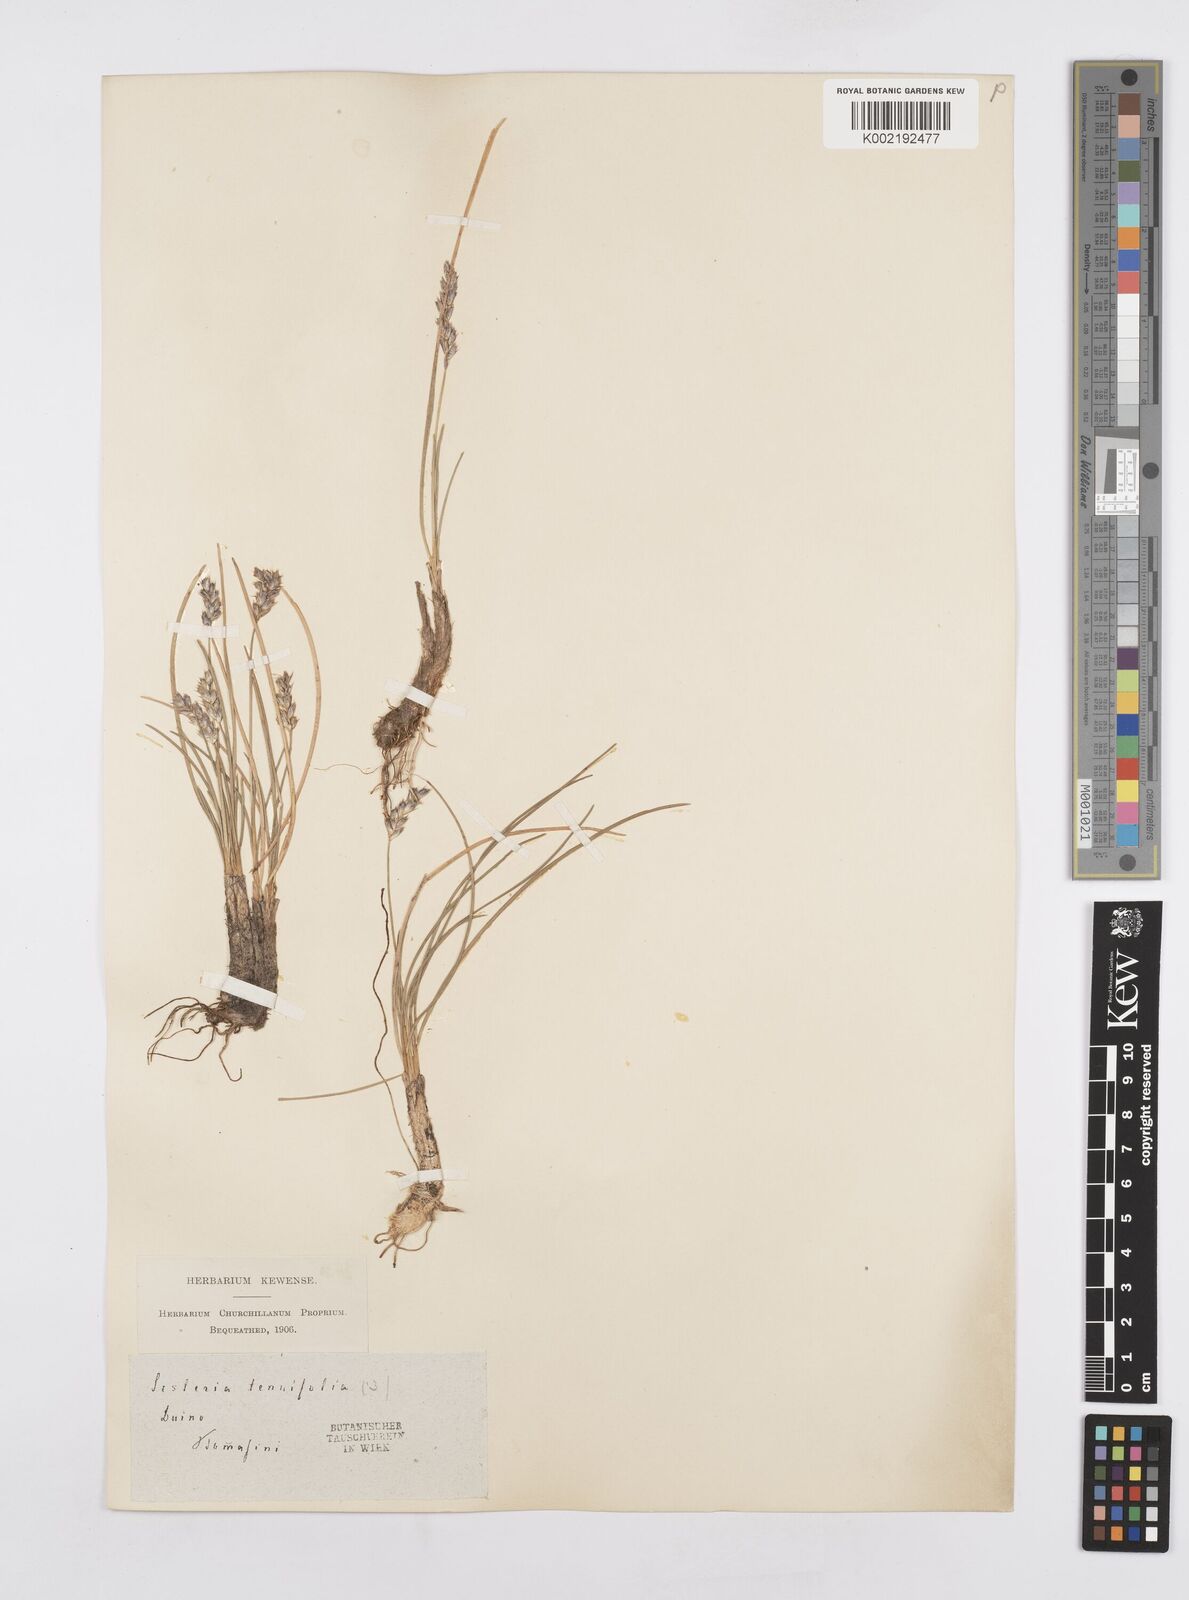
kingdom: Plantae
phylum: Tracheophyta
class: Liliopsida
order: Poales
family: Poaceae
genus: Sesleria
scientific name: Sesleria juncifolia
